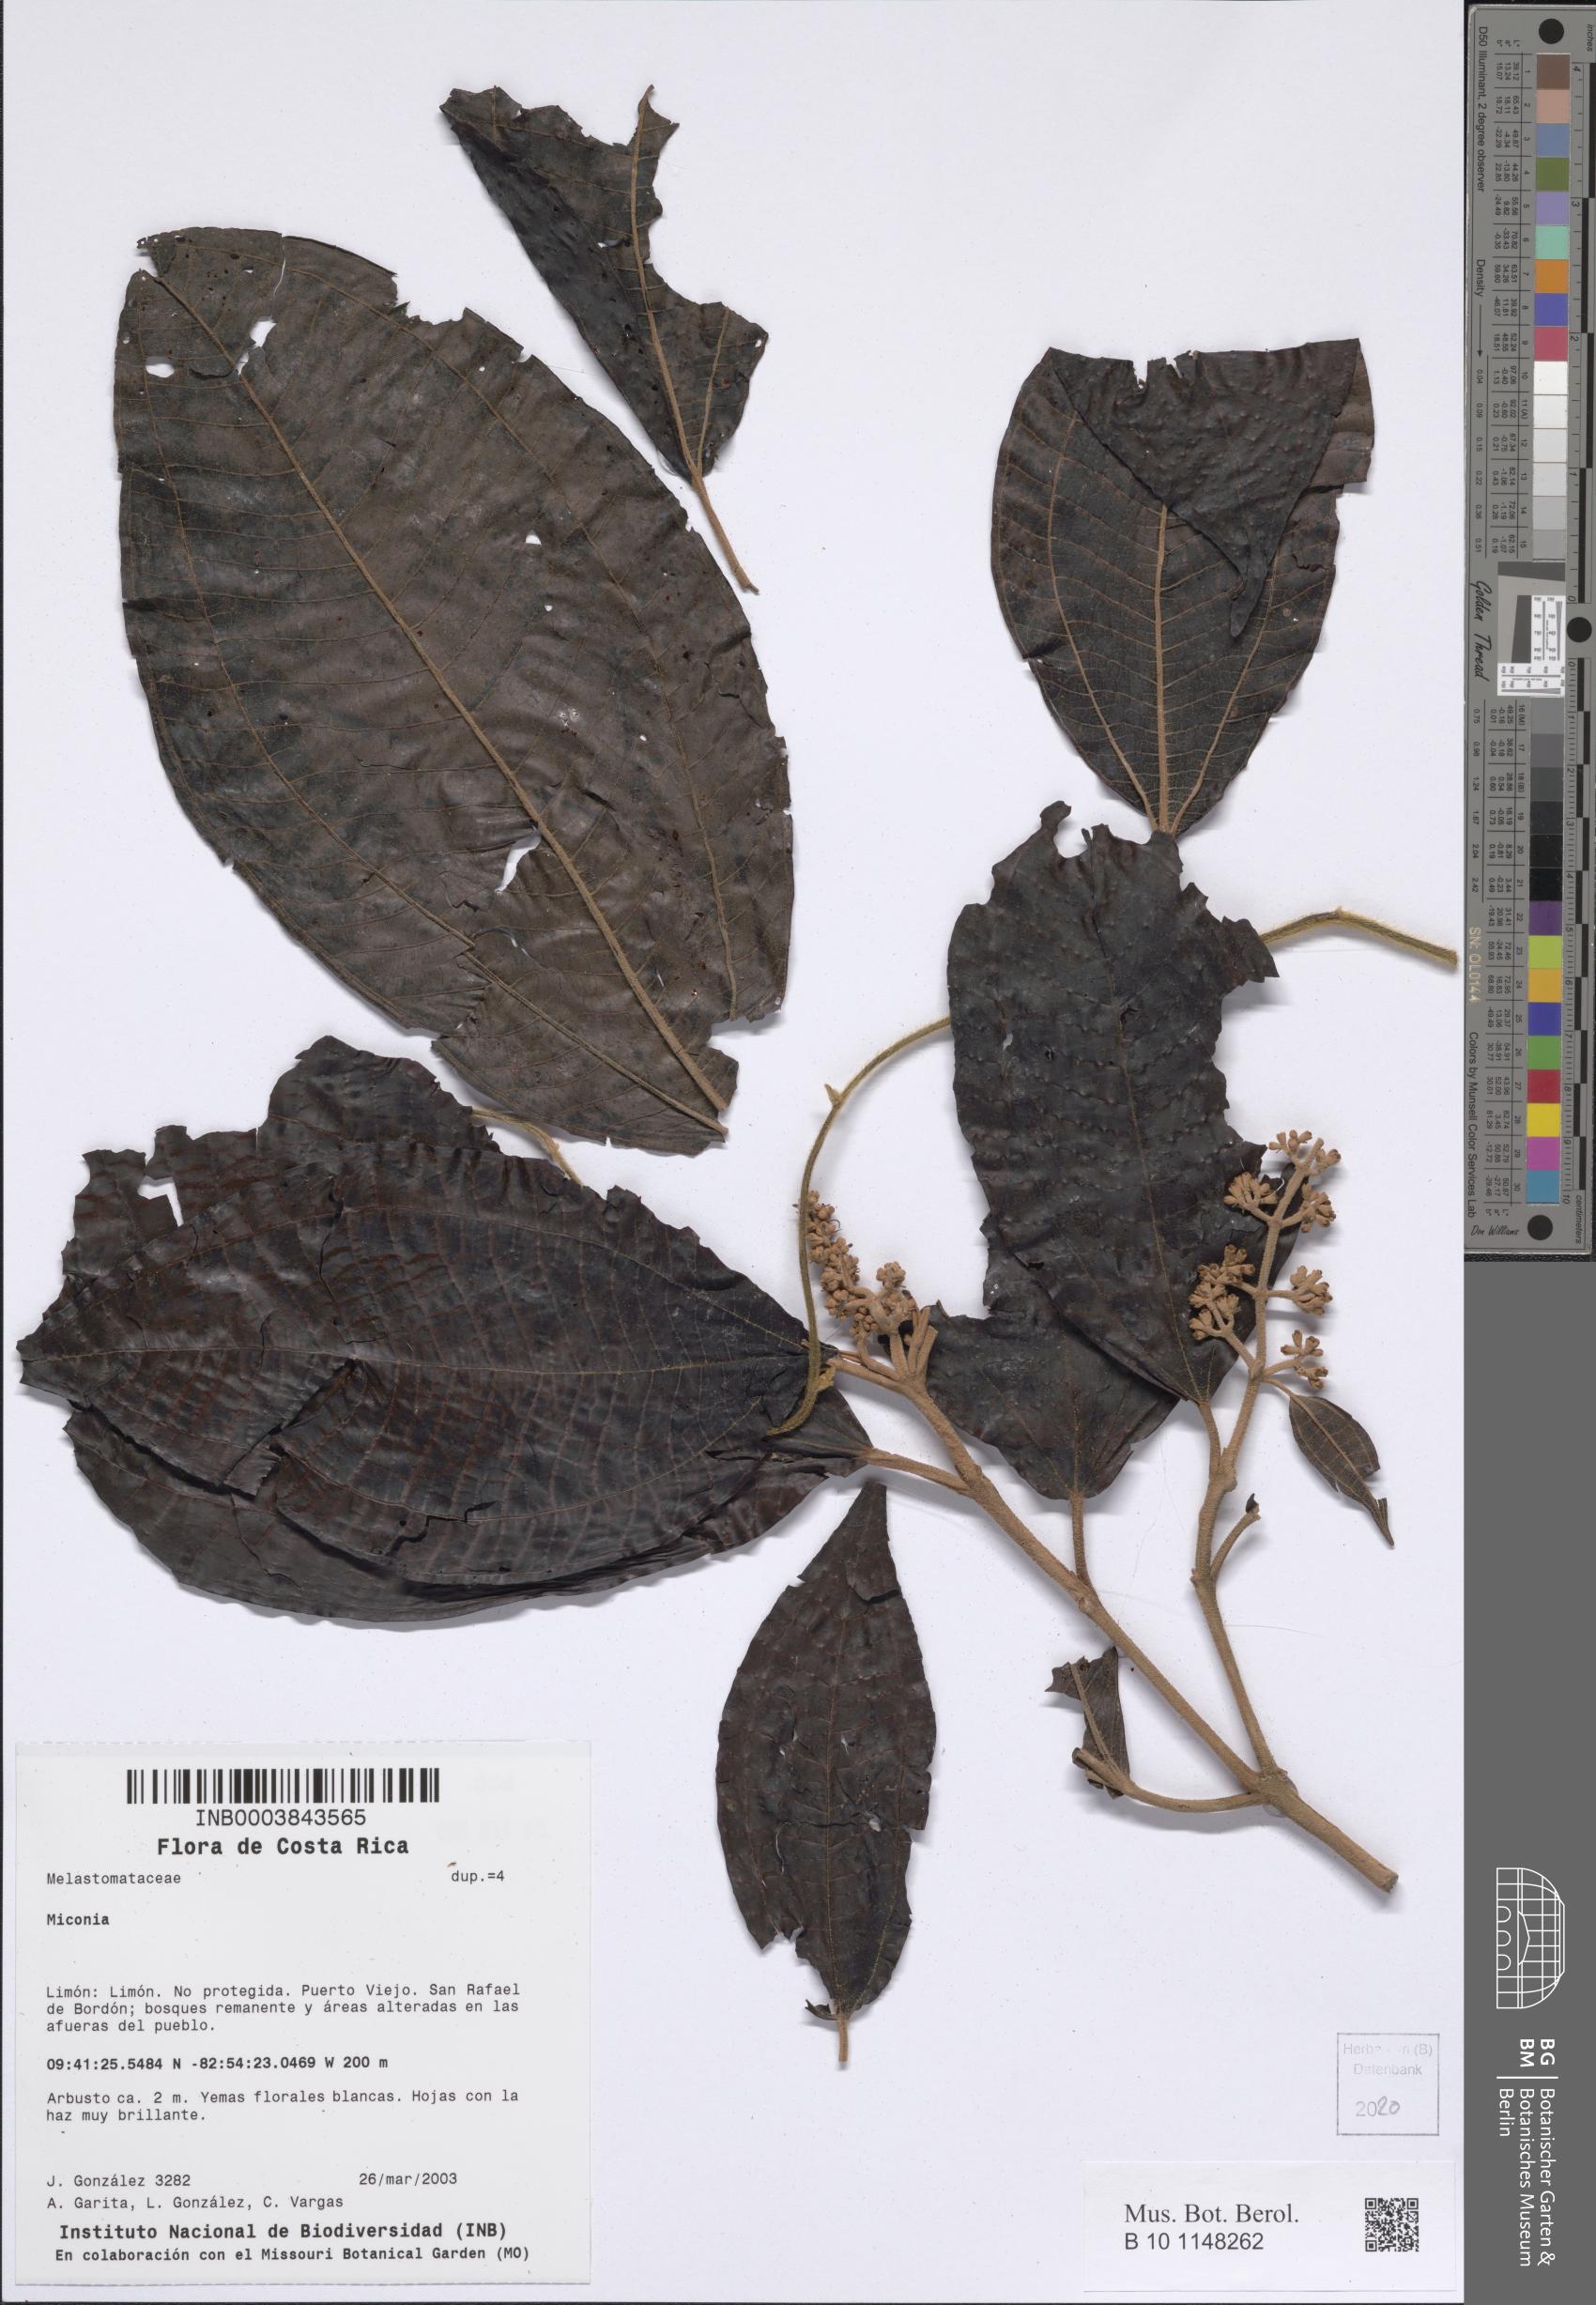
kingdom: Plantae
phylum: Tracheophyta
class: Magnoliopsida
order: Myrtales
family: Melastomataceae
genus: Miconia
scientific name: Miconia
